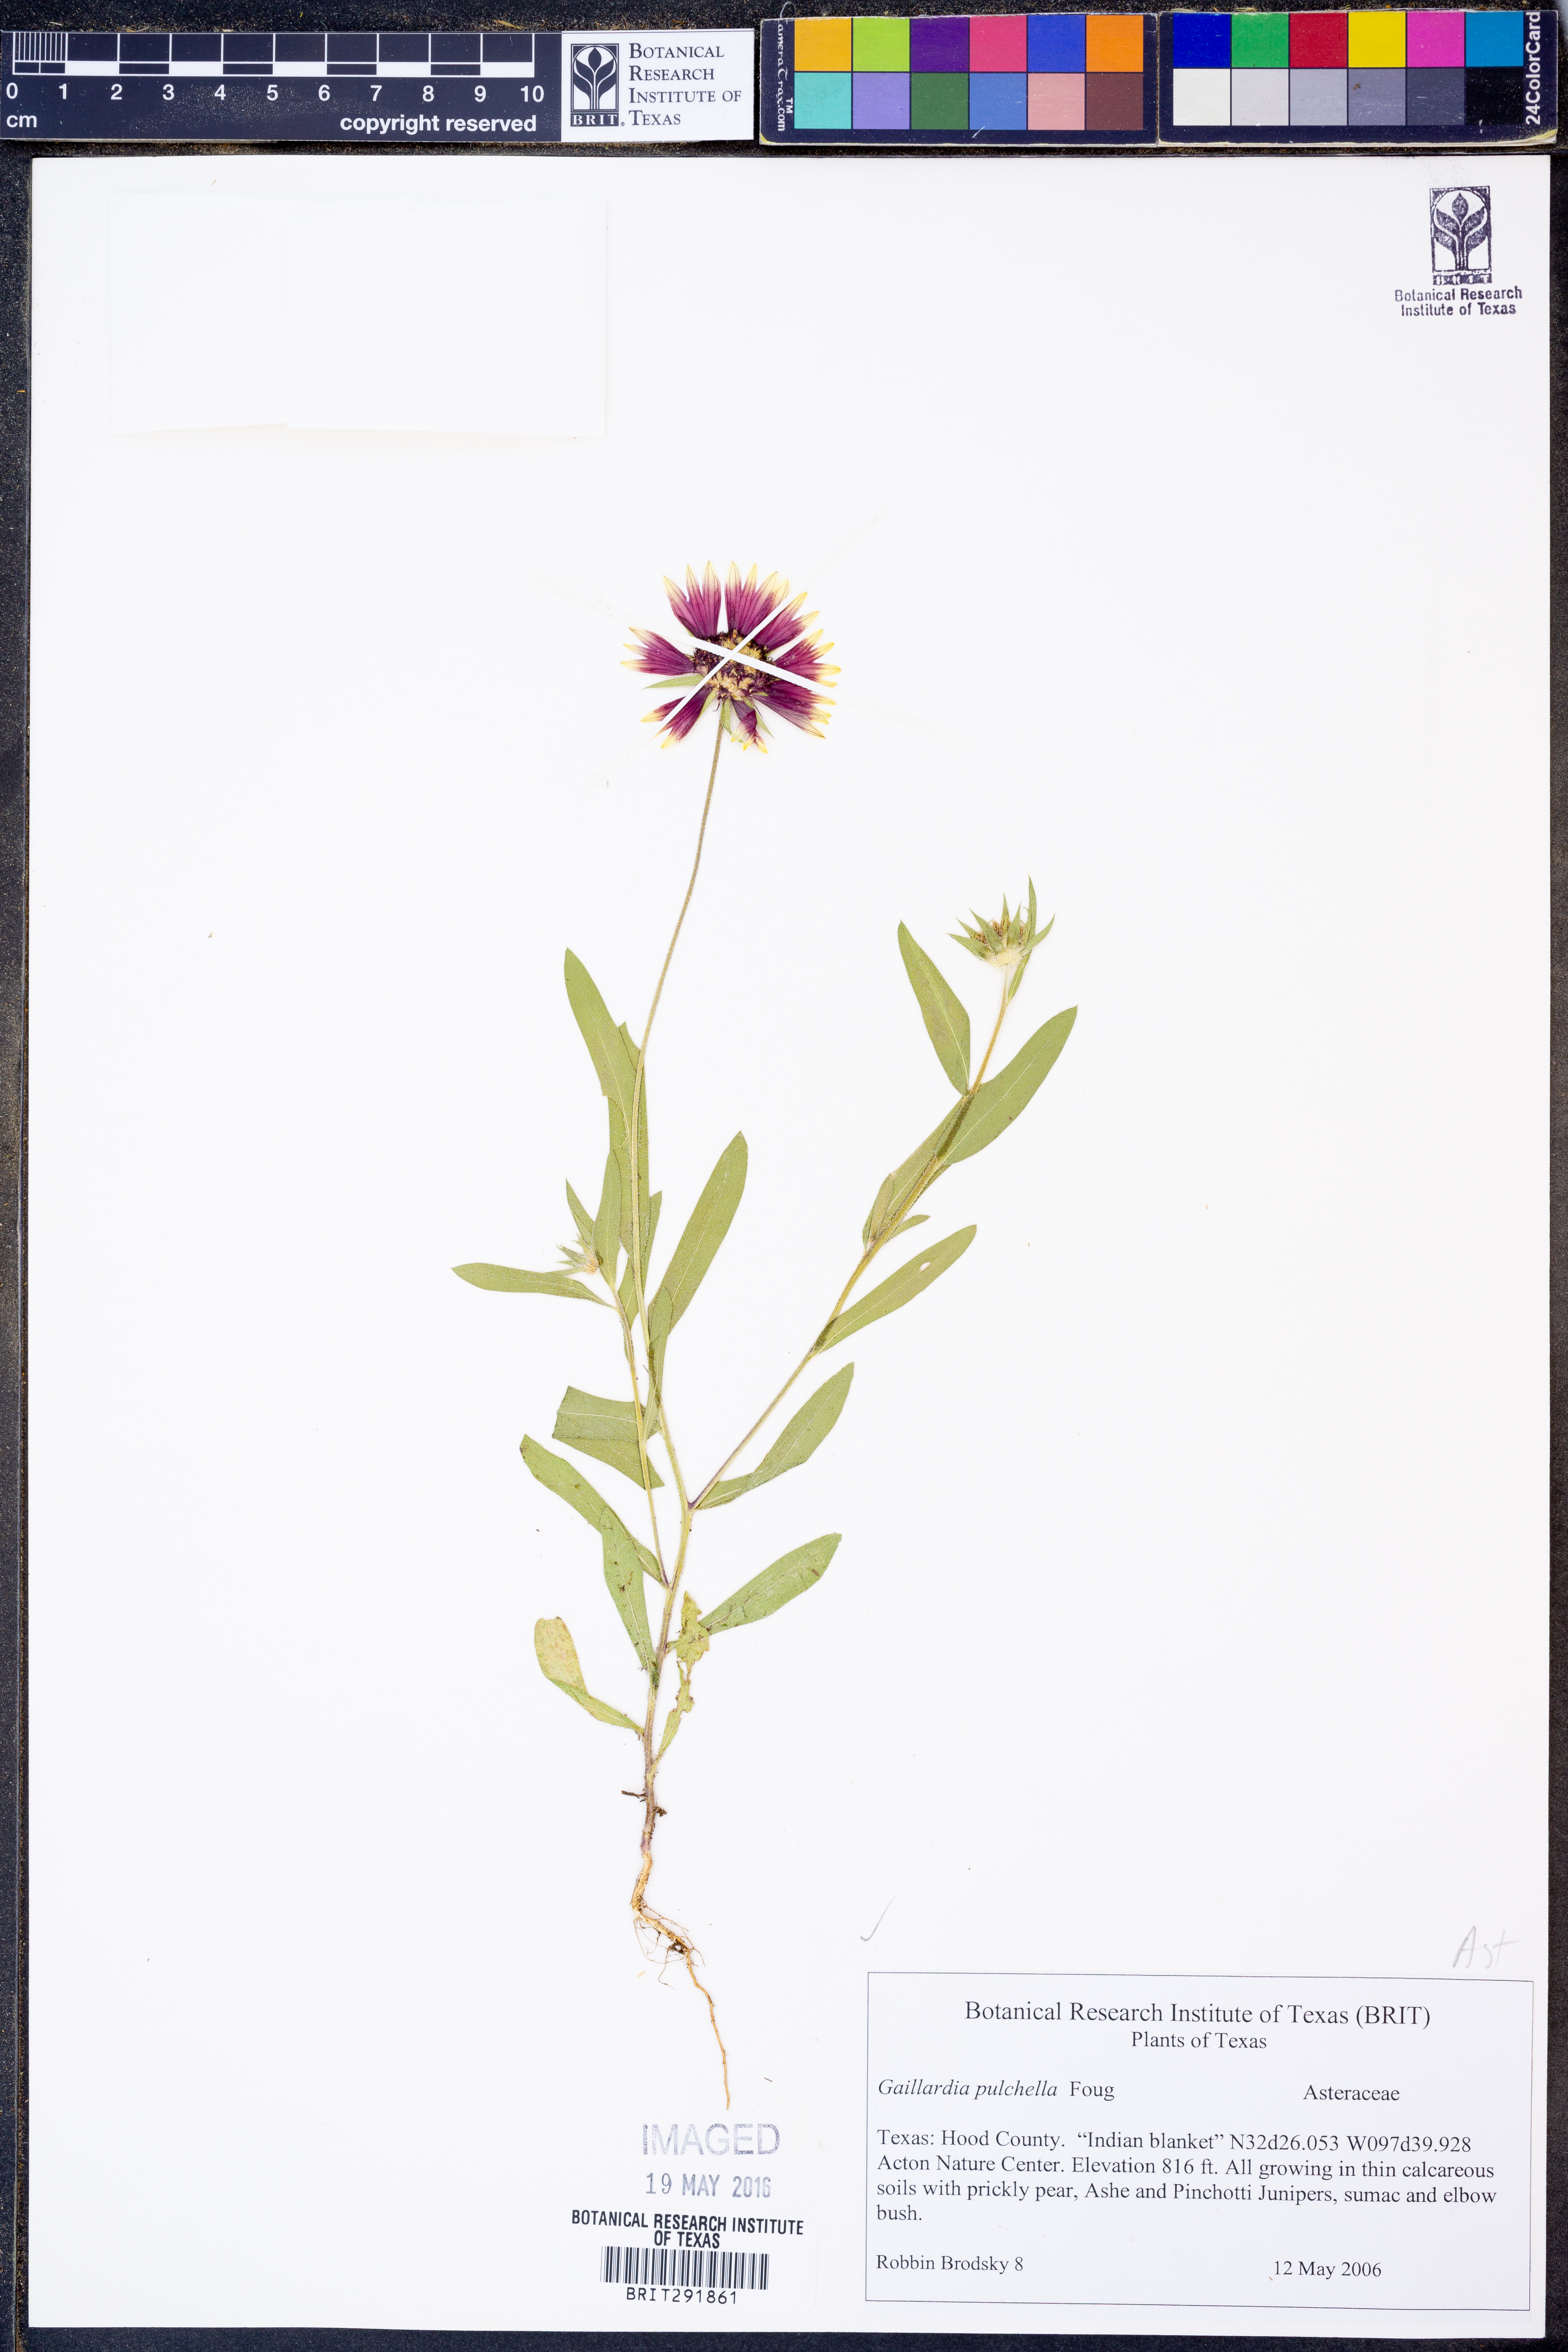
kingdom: Plantae
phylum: Tracheophyta
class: Magnoliopsida
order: Asterales
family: Asteraceae
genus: Gaillardia
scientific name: Gaillardia pulchella
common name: Firewheel
